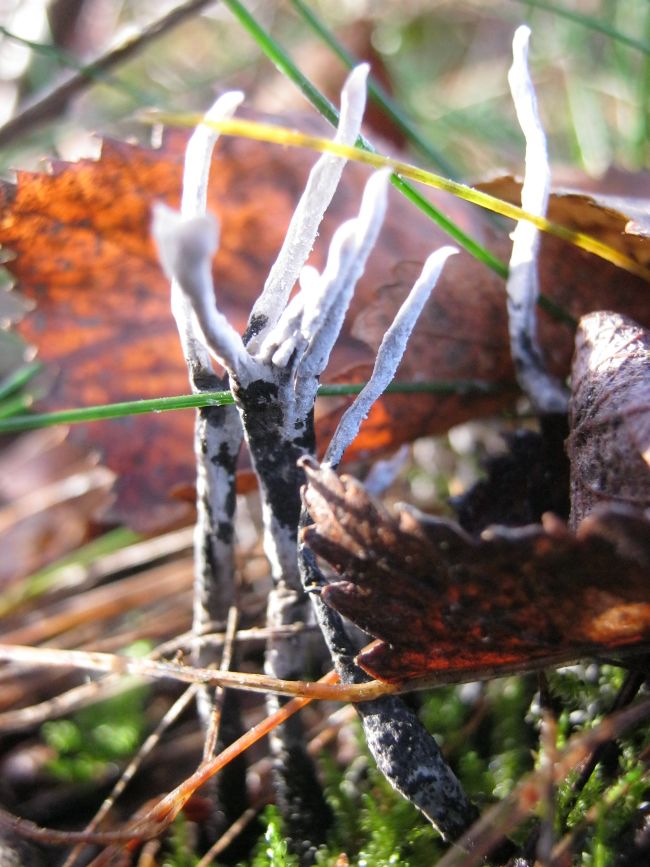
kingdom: Fungi
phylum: Ascomycota
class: Sordariomycetes
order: Xylariales
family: Xylariaceae
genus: Xylaria
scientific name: Xylaria hypoxylon
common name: grenet stødsvamp
